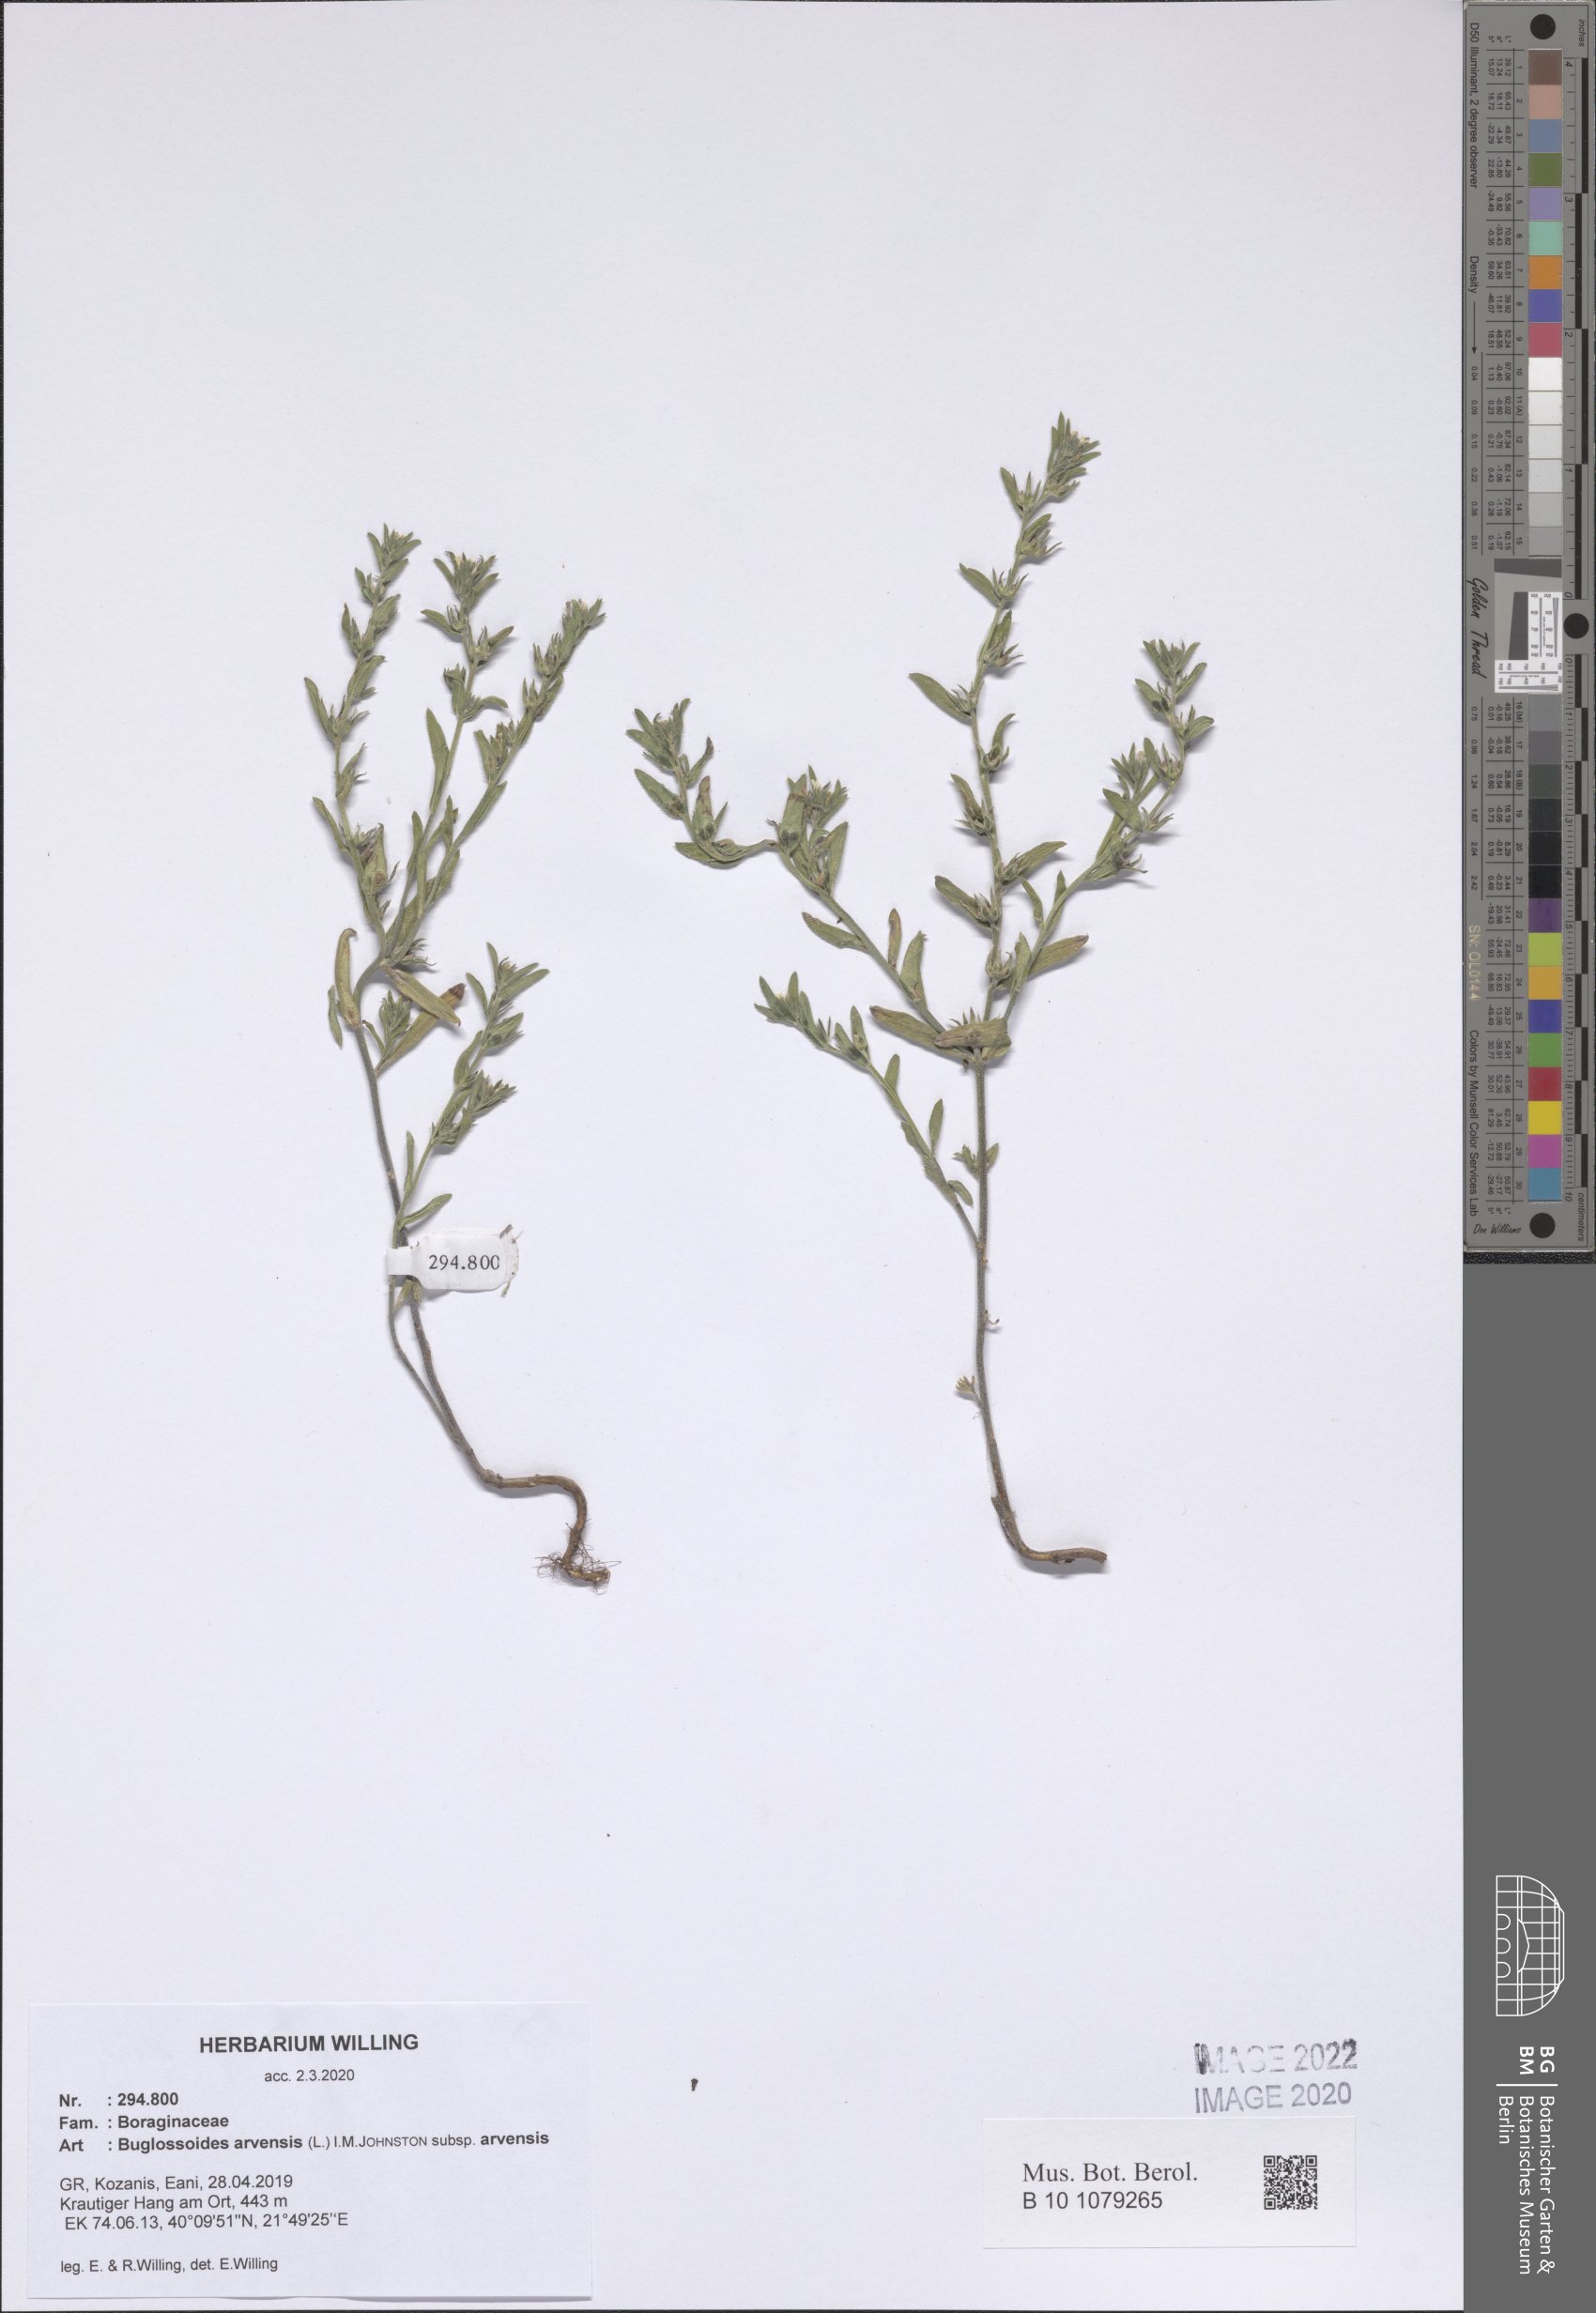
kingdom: Plantae
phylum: Tracheophyta
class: Magnoliopsida
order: Boraginales
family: Boraginaceae
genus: Buglossoides
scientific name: Buglossoides arvensis
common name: Corn gromwell
